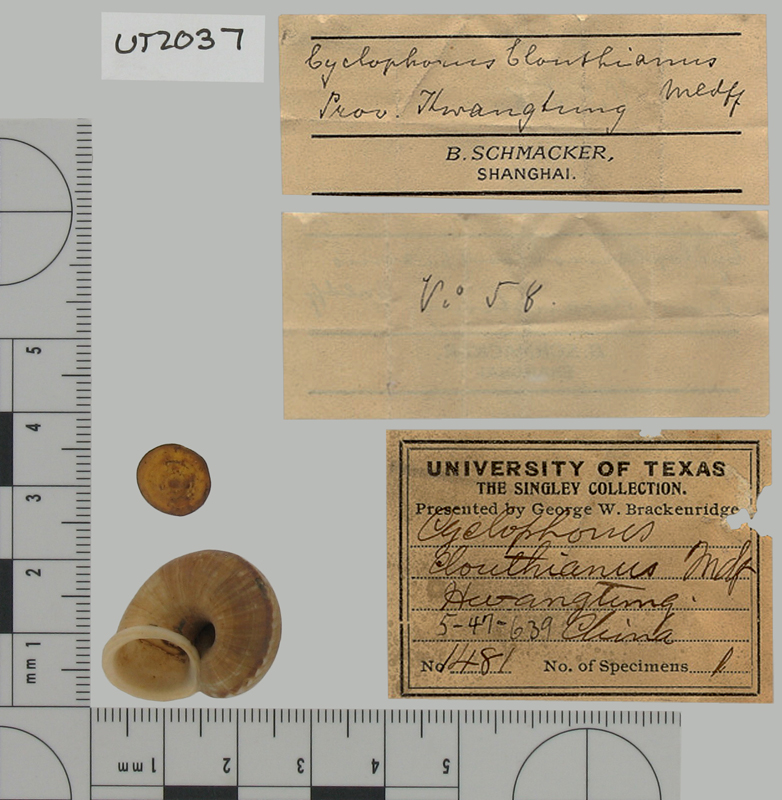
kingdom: Animalia
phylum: Mollusca
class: Gastropoda
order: Architaenioglossa
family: Cyclophoridae
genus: Cyclophorus
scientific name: Cyclophorus clouthianus
